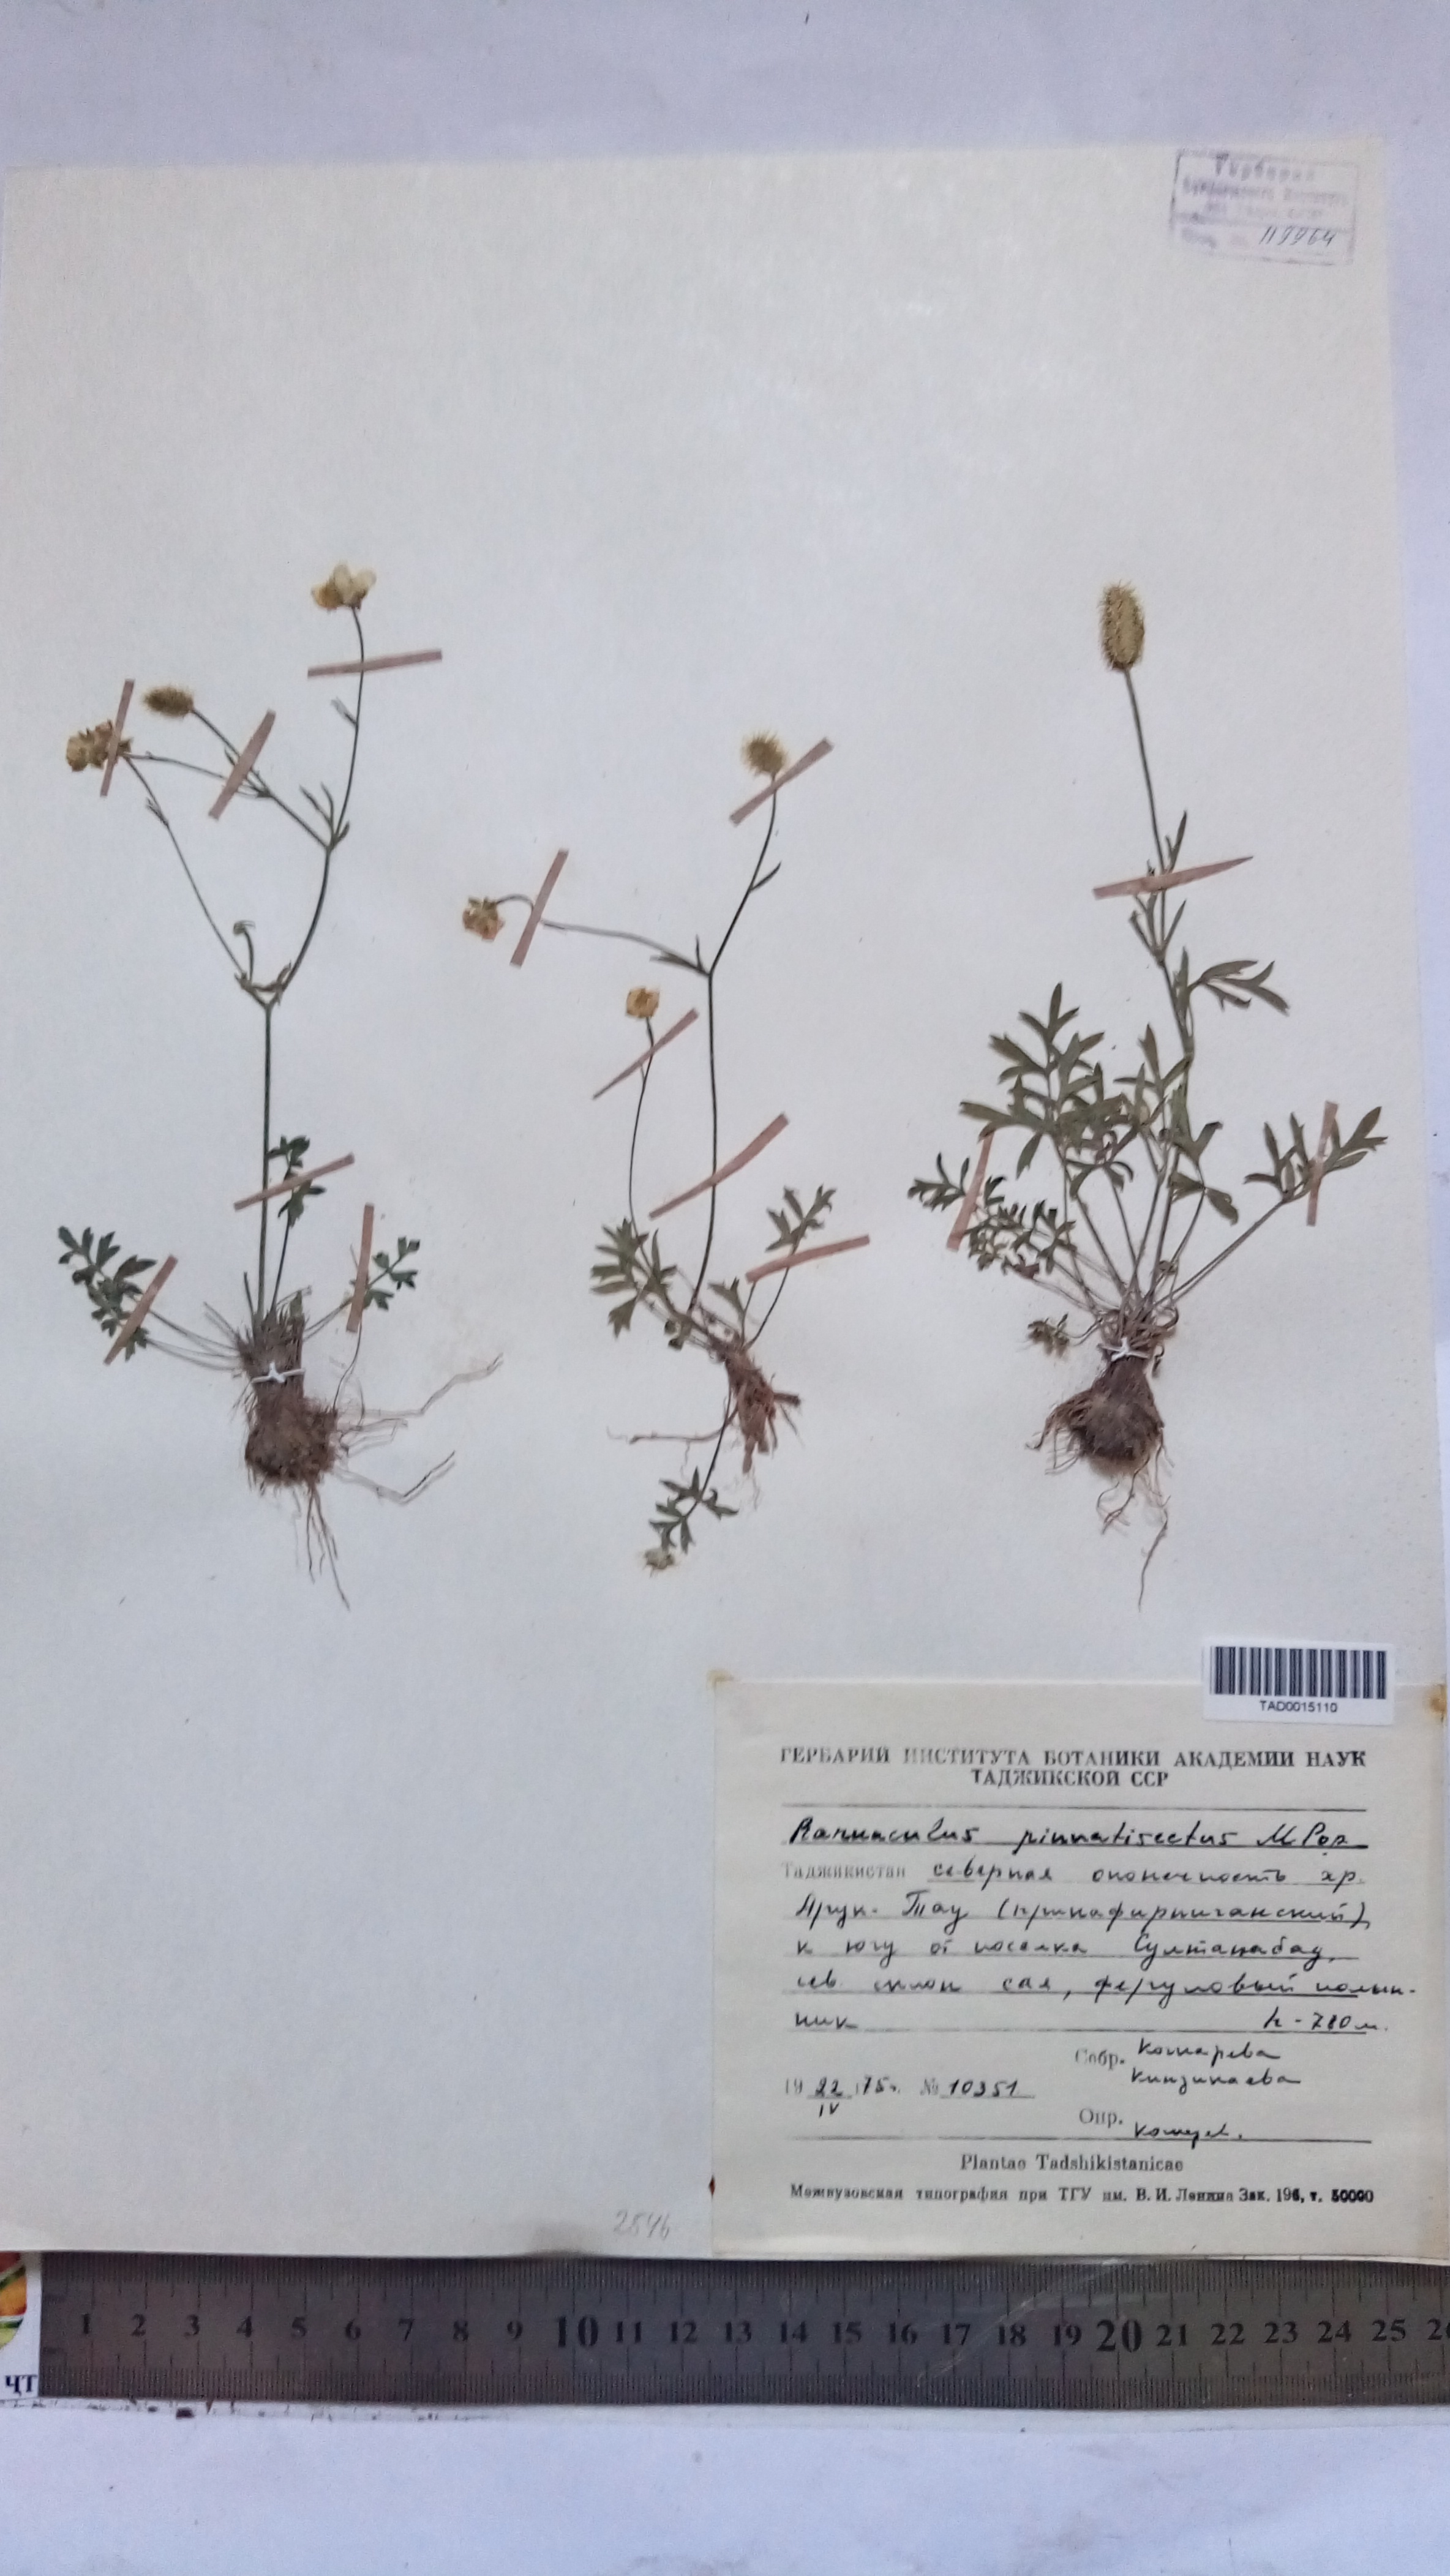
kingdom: Plantae
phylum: Tracheophyta
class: Magnoliopsida
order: Ranunculales
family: Ranunculaceae
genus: Ranunculus
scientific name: Ranunculus pinnatisectus
